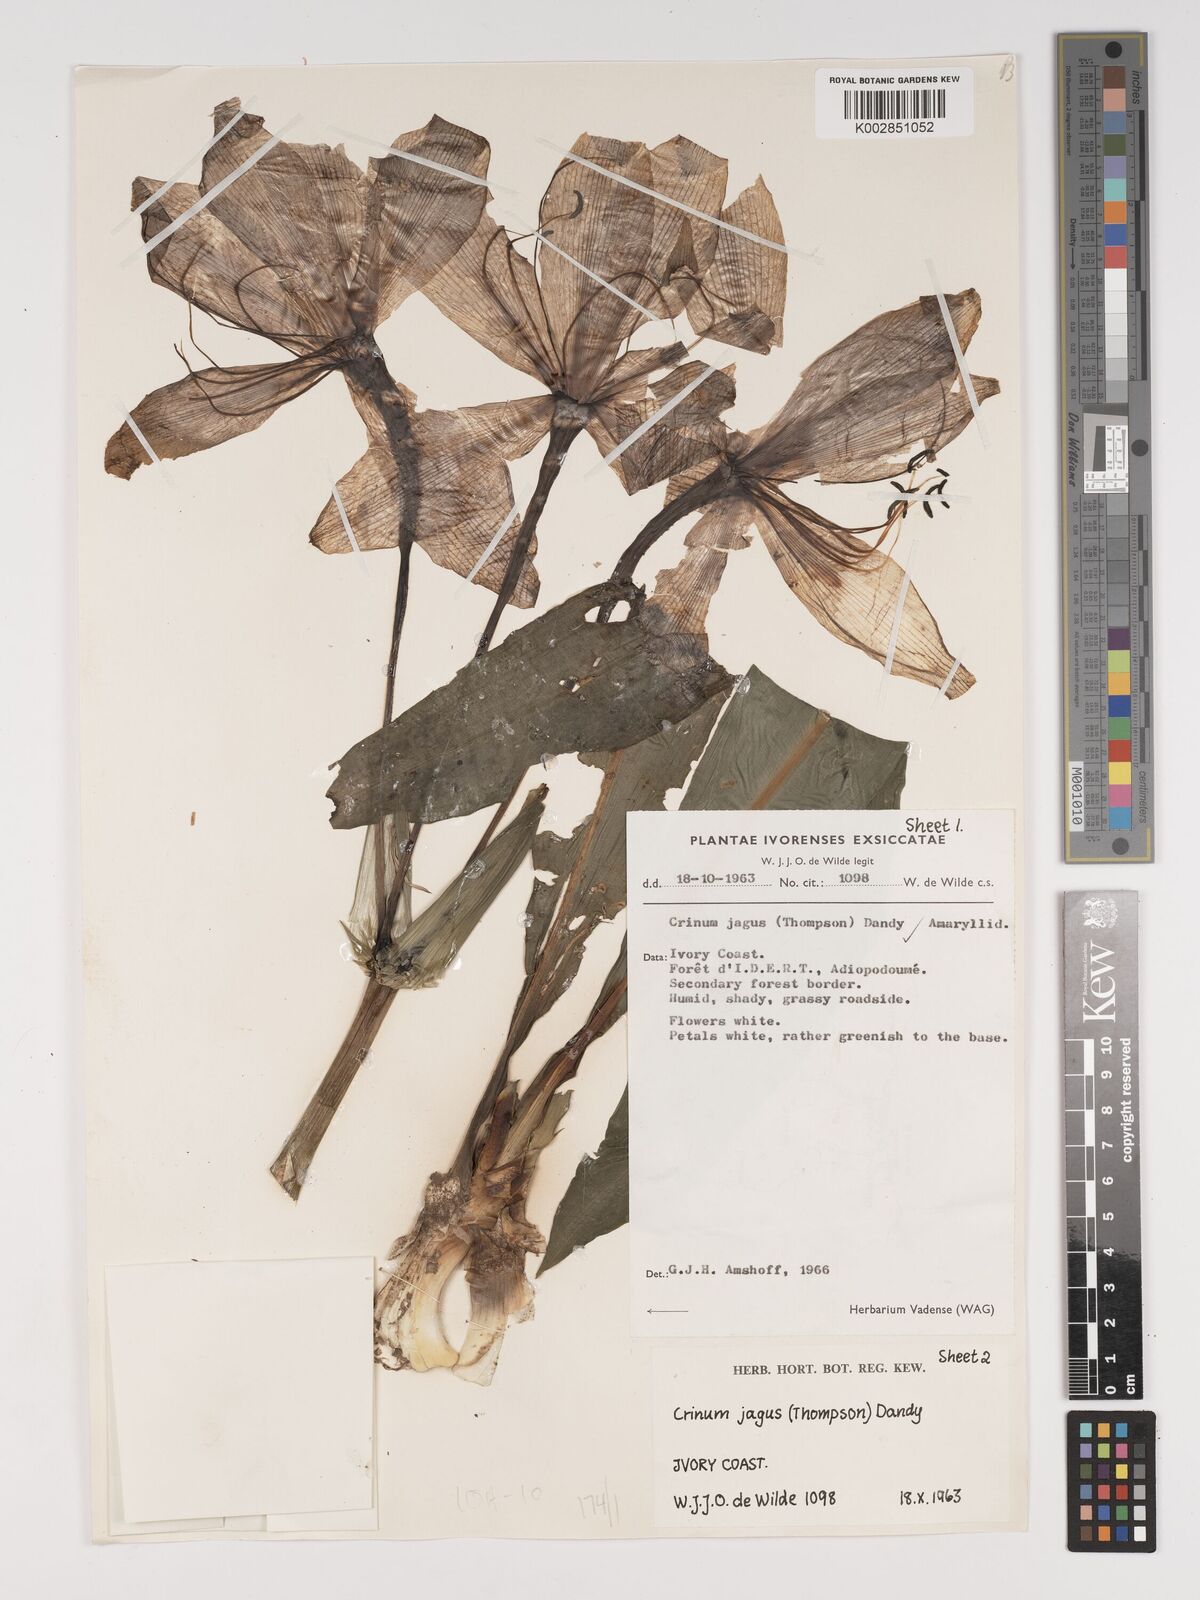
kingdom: Plantae
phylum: Tracheophyta
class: Liliopsida
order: Asparagales
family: Amaryllidaceae
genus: Crinum
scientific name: Crinum jagus
